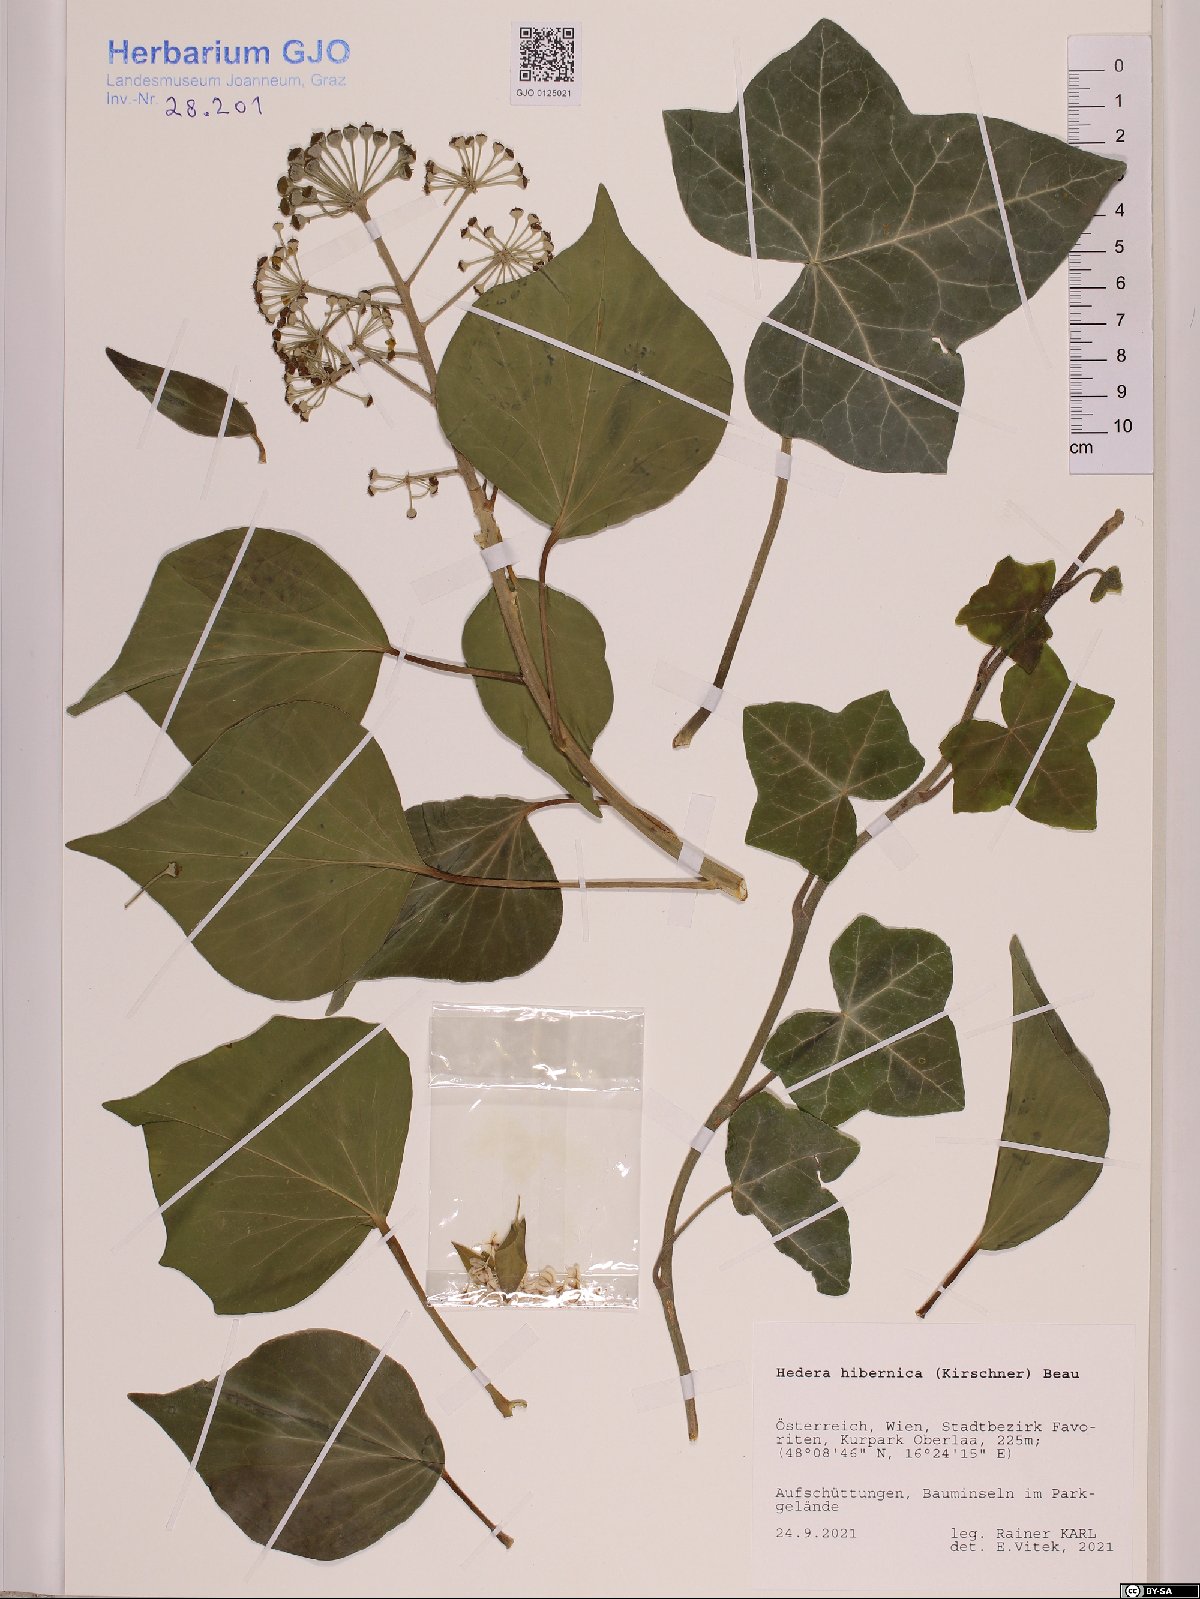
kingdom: Plantae
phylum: Tracheophyta
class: Magnoliopsida
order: Apiales
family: Araliaceae
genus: Hedera
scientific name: Hedera hibernica
